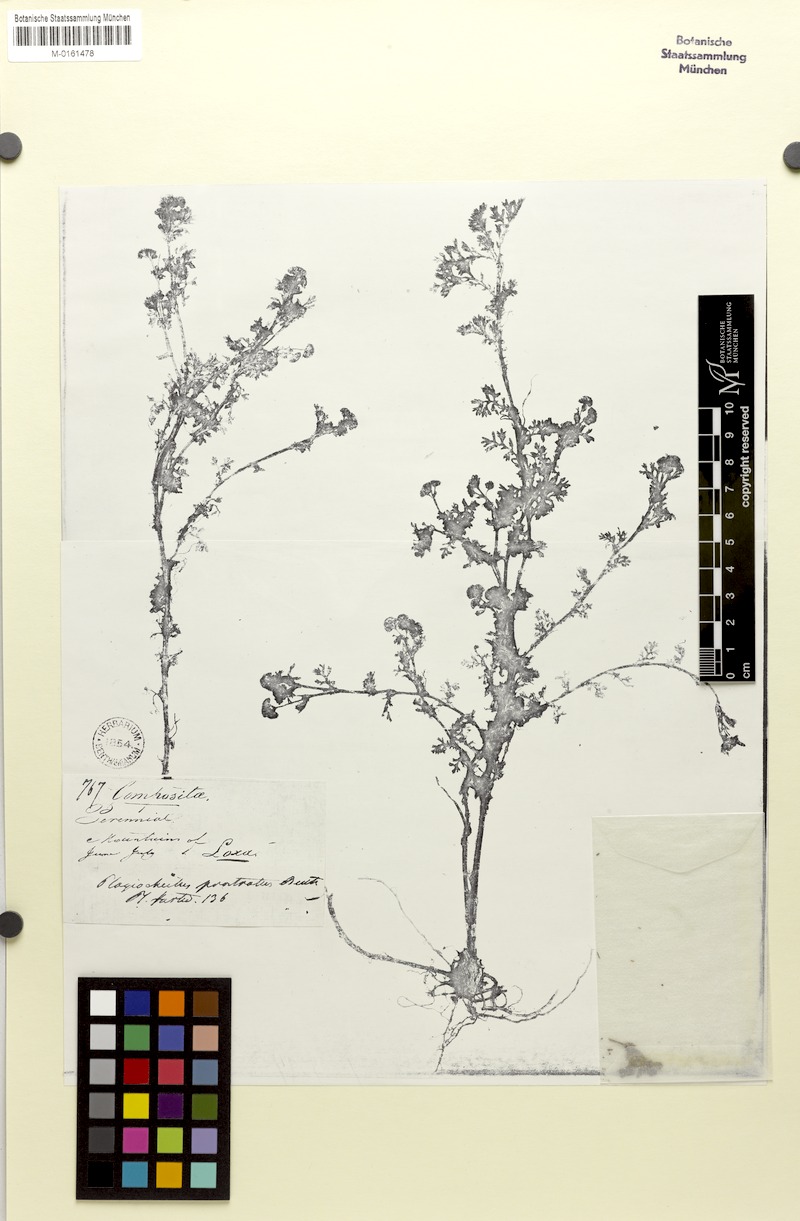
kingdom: Plantae
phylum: Tracheophyta
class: Magnoliopsida
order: Asterales
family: Asteraceae
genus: Plagiocheilus
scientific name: Plagiocheilus bogotensis
